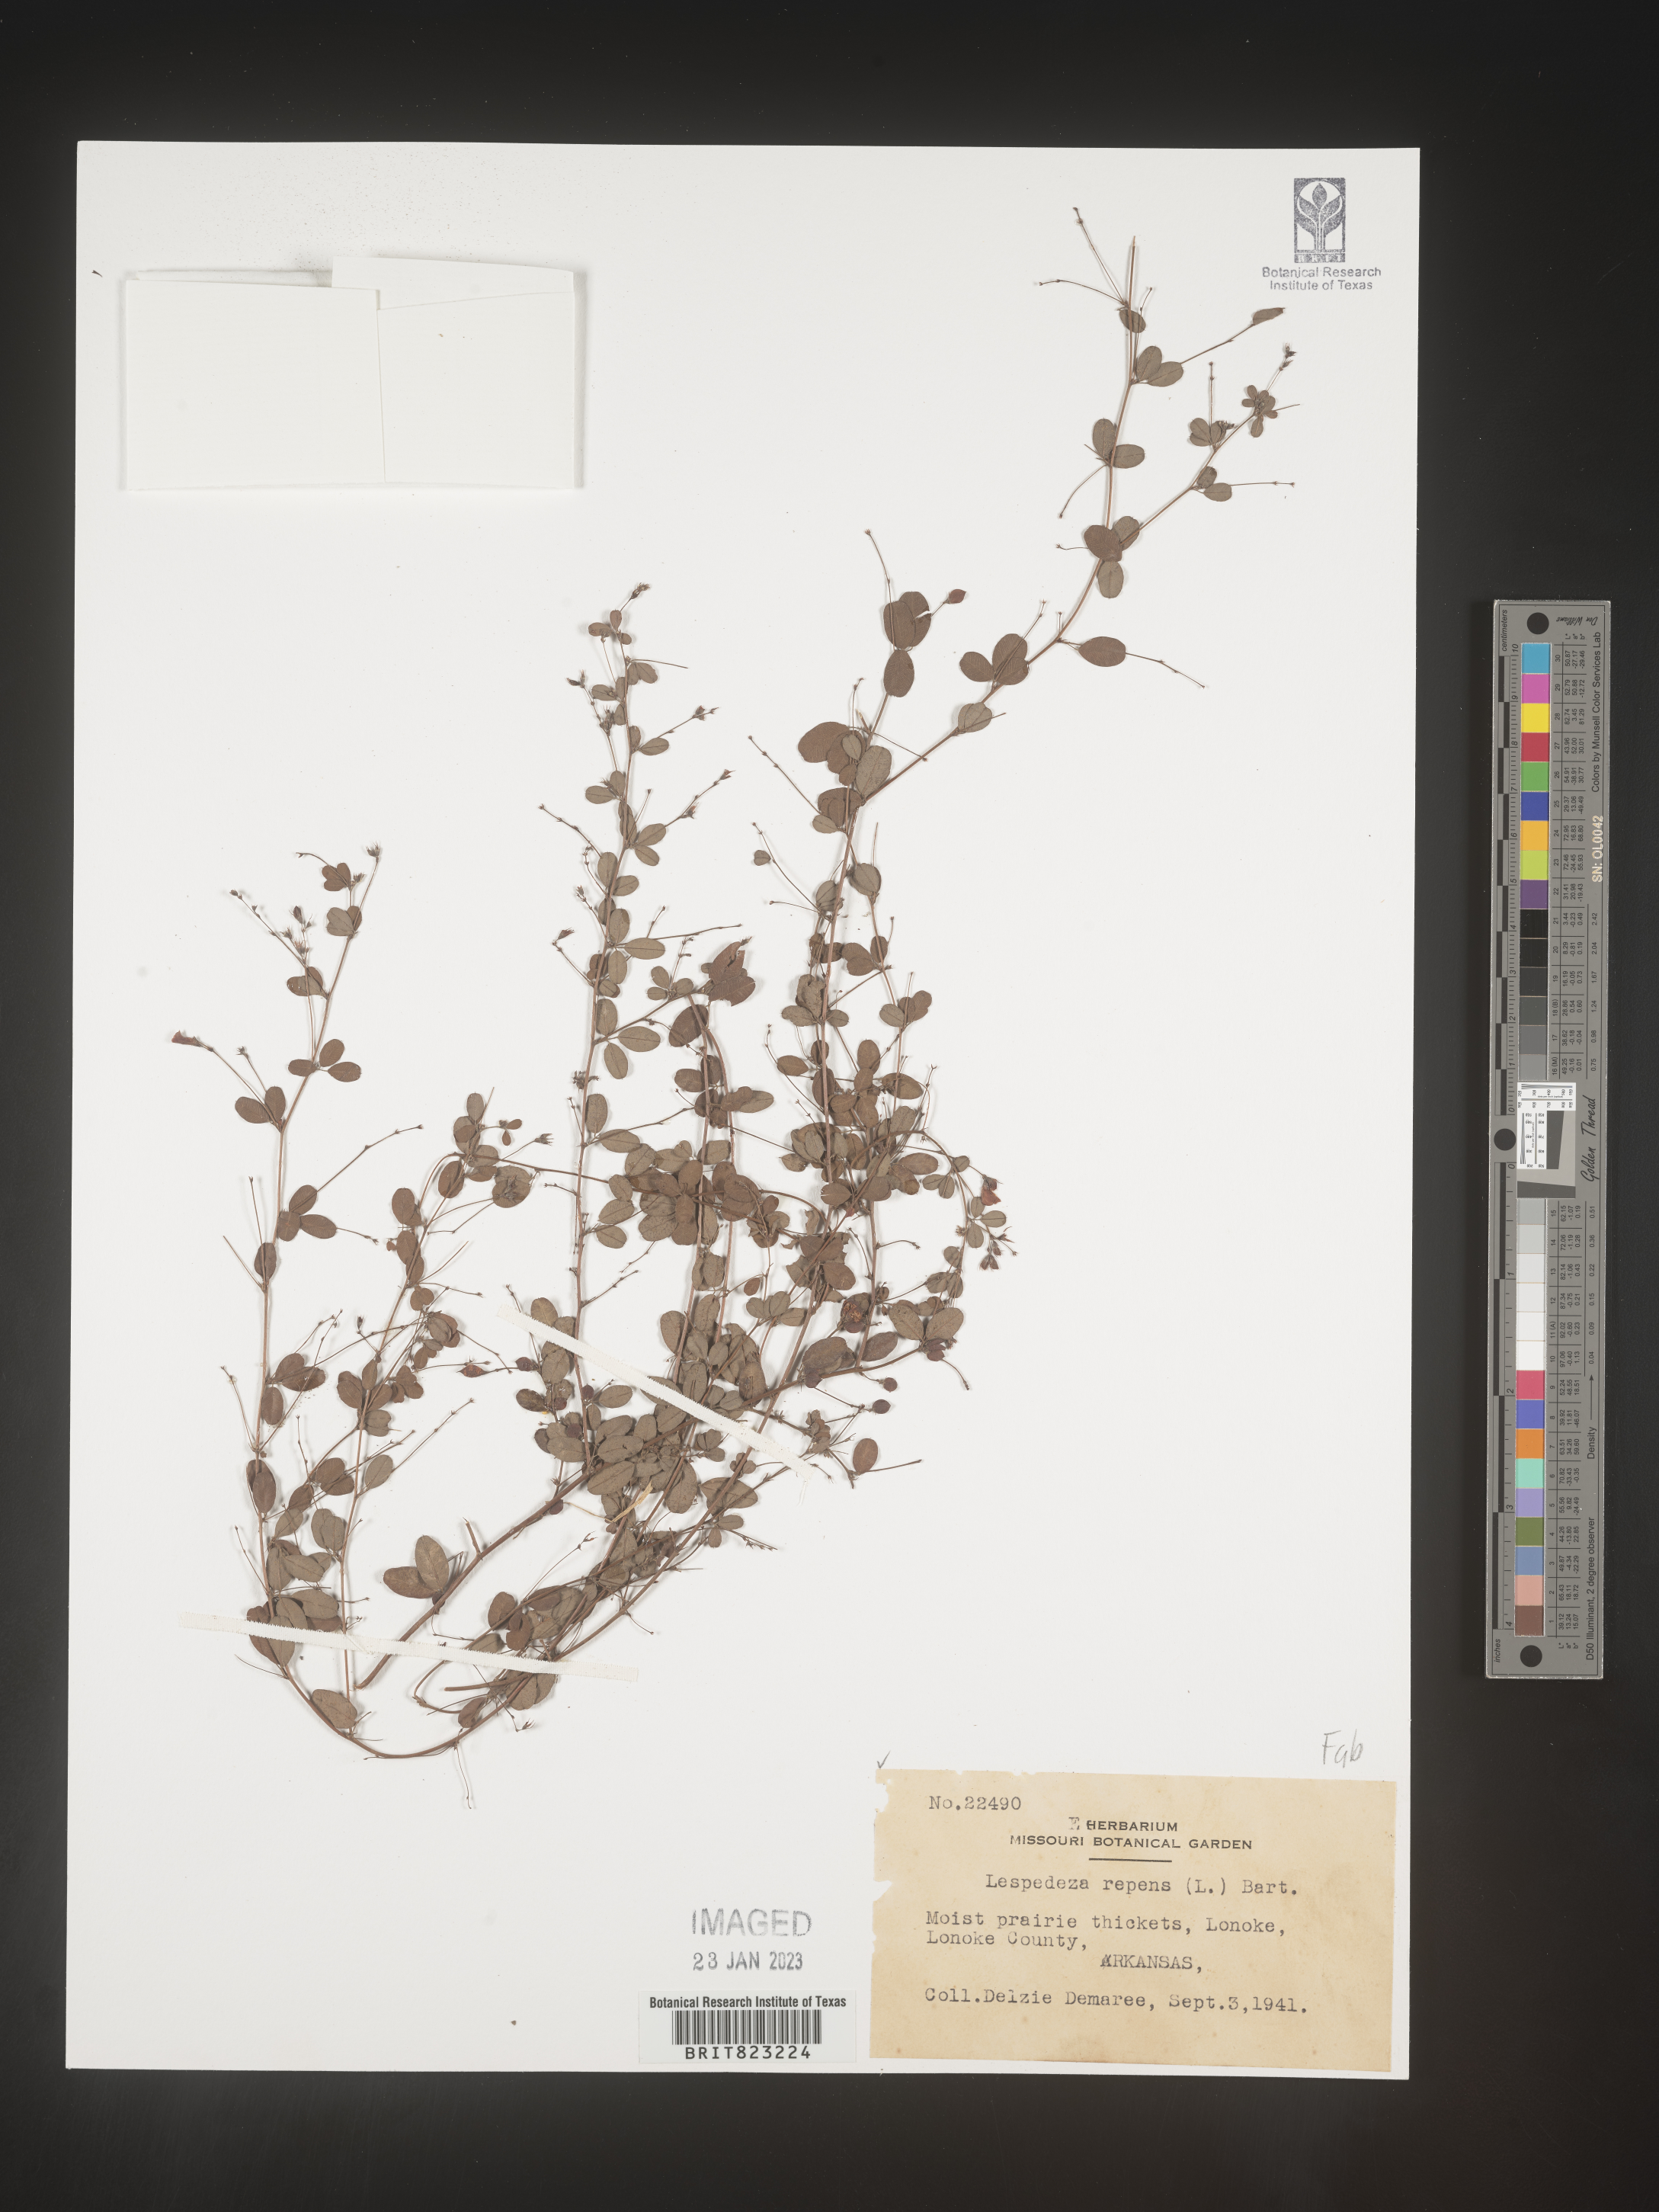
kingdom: Plantae
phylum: Tracheophyta
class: Magnoliopsida
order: Fabales
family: Fabaceae
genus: Lespedeza
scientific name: Lespedeza repens
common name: Creeping bush-clover
